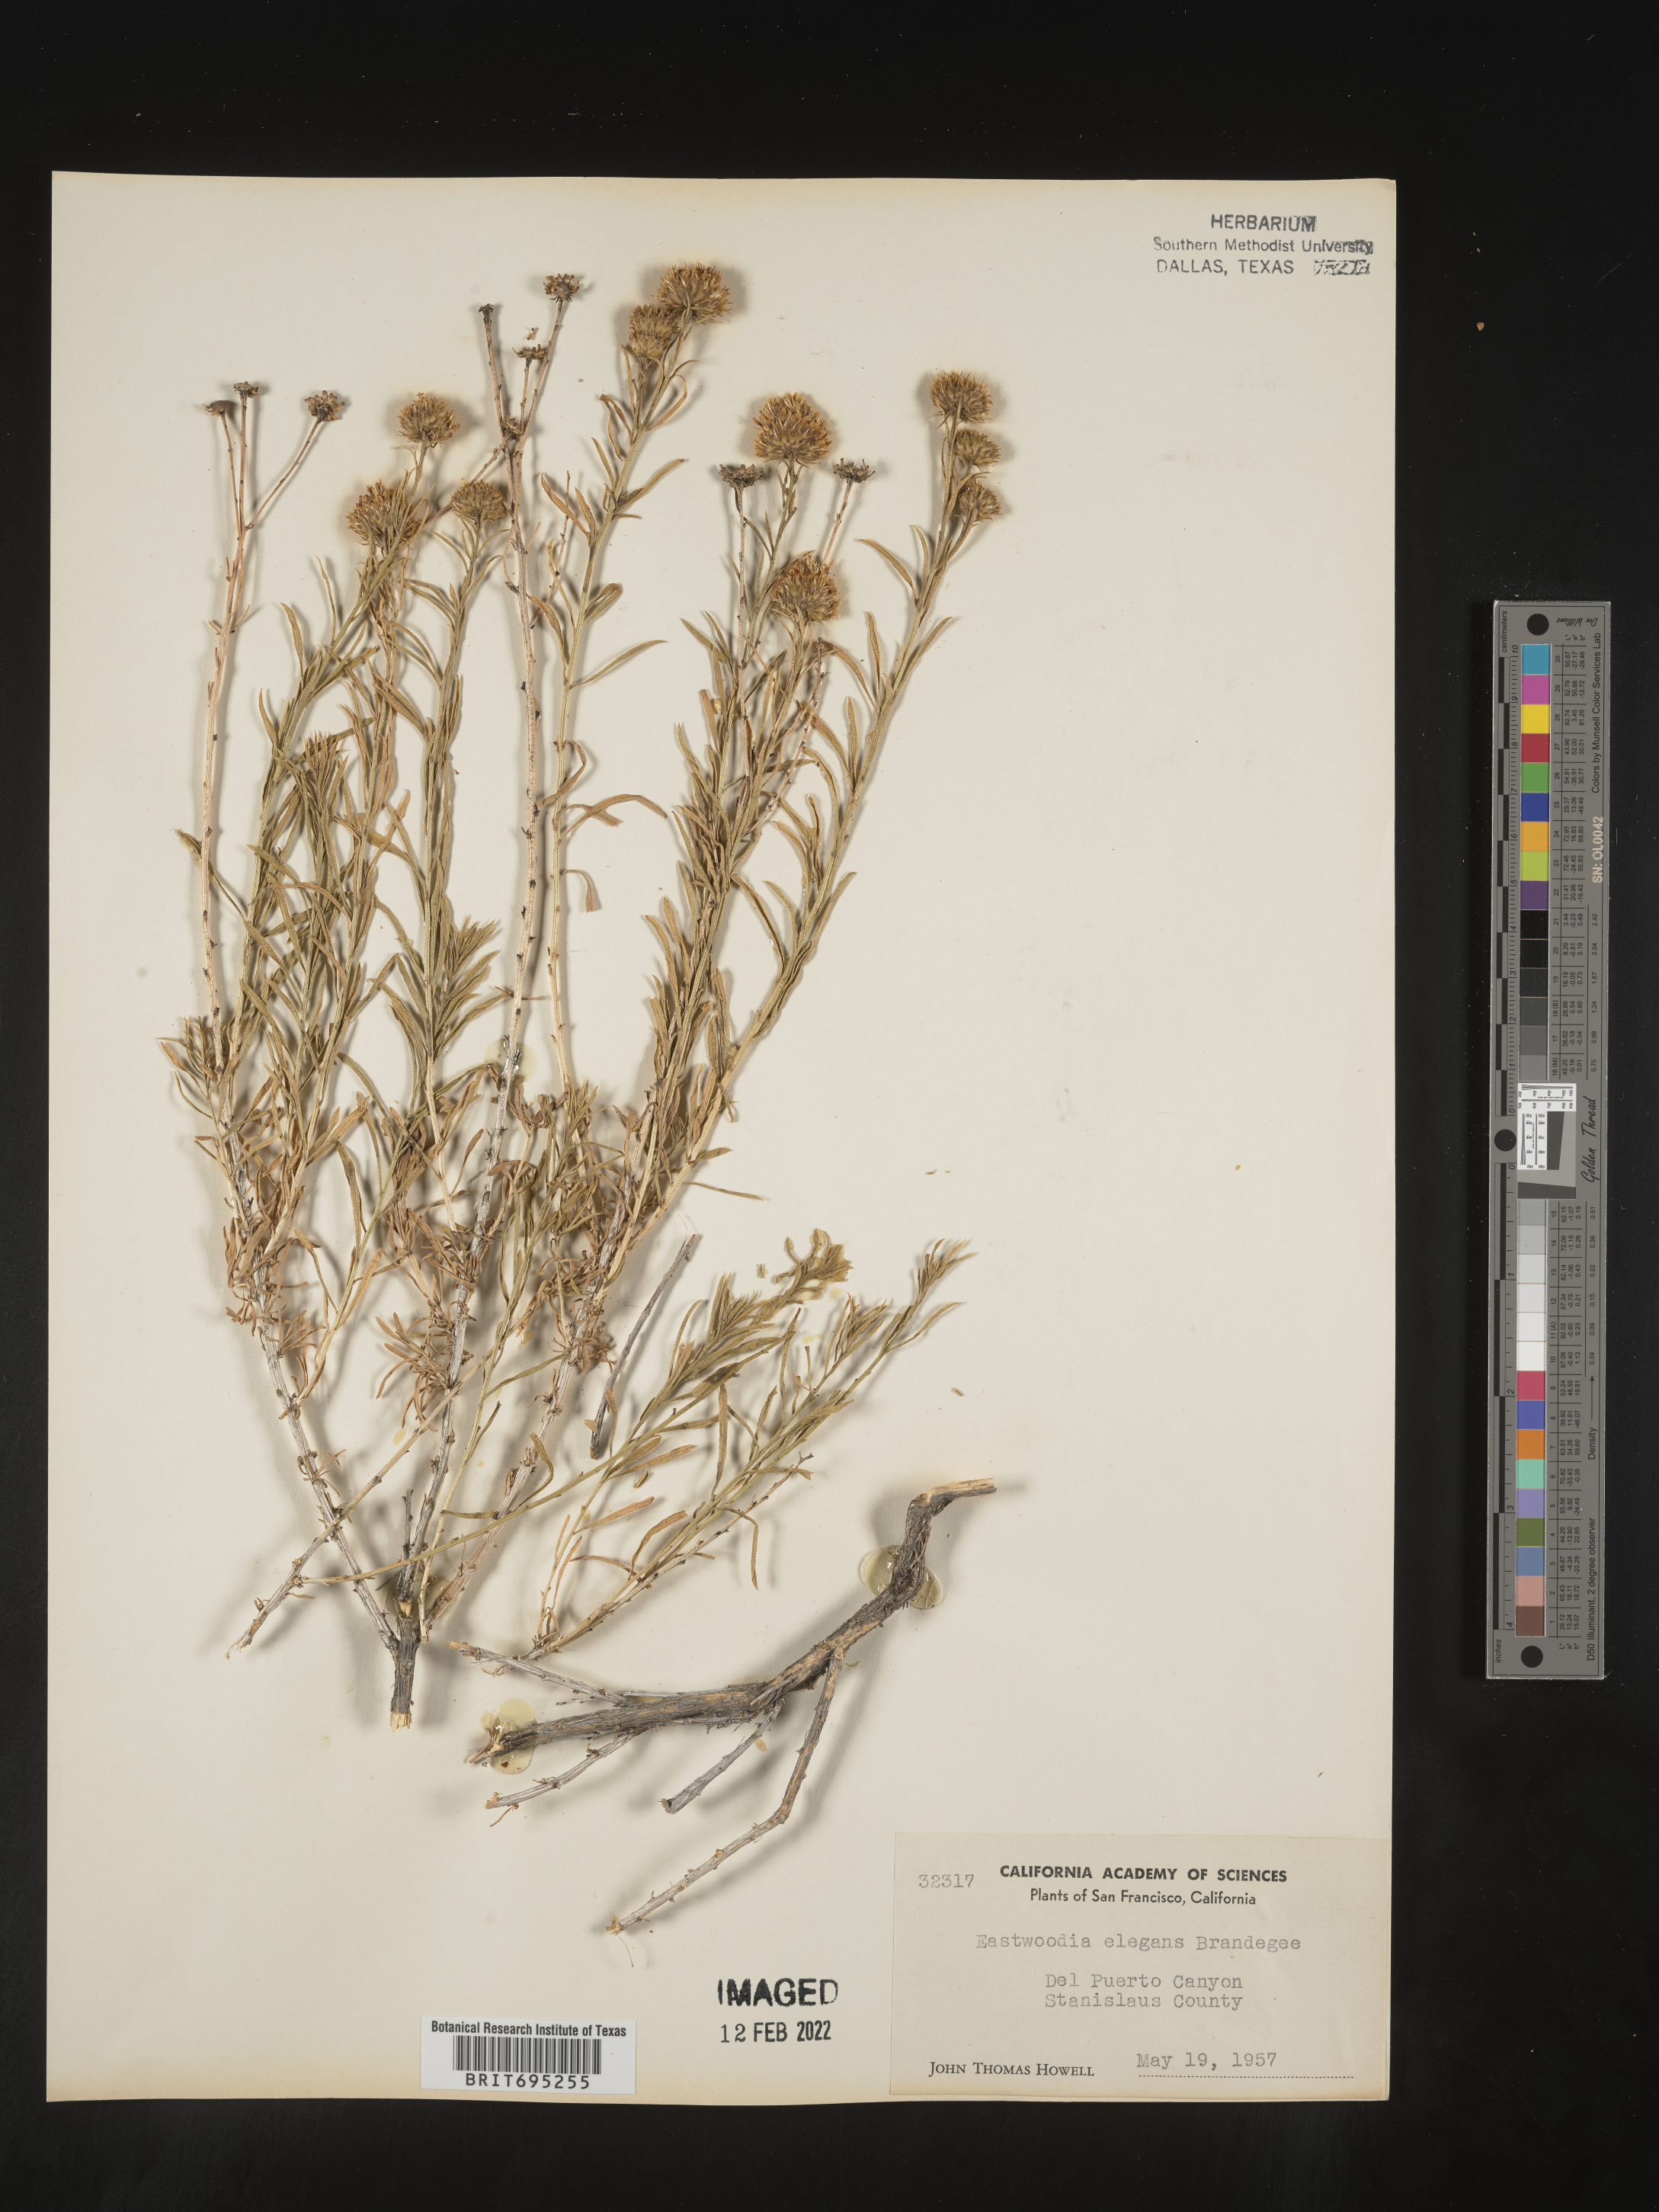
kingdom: Plantae
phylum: Tracheophyta
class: Magnoliopsida
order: Asterales
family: Asteraceae
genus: Eastwoodia
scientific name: Eastwoodia
